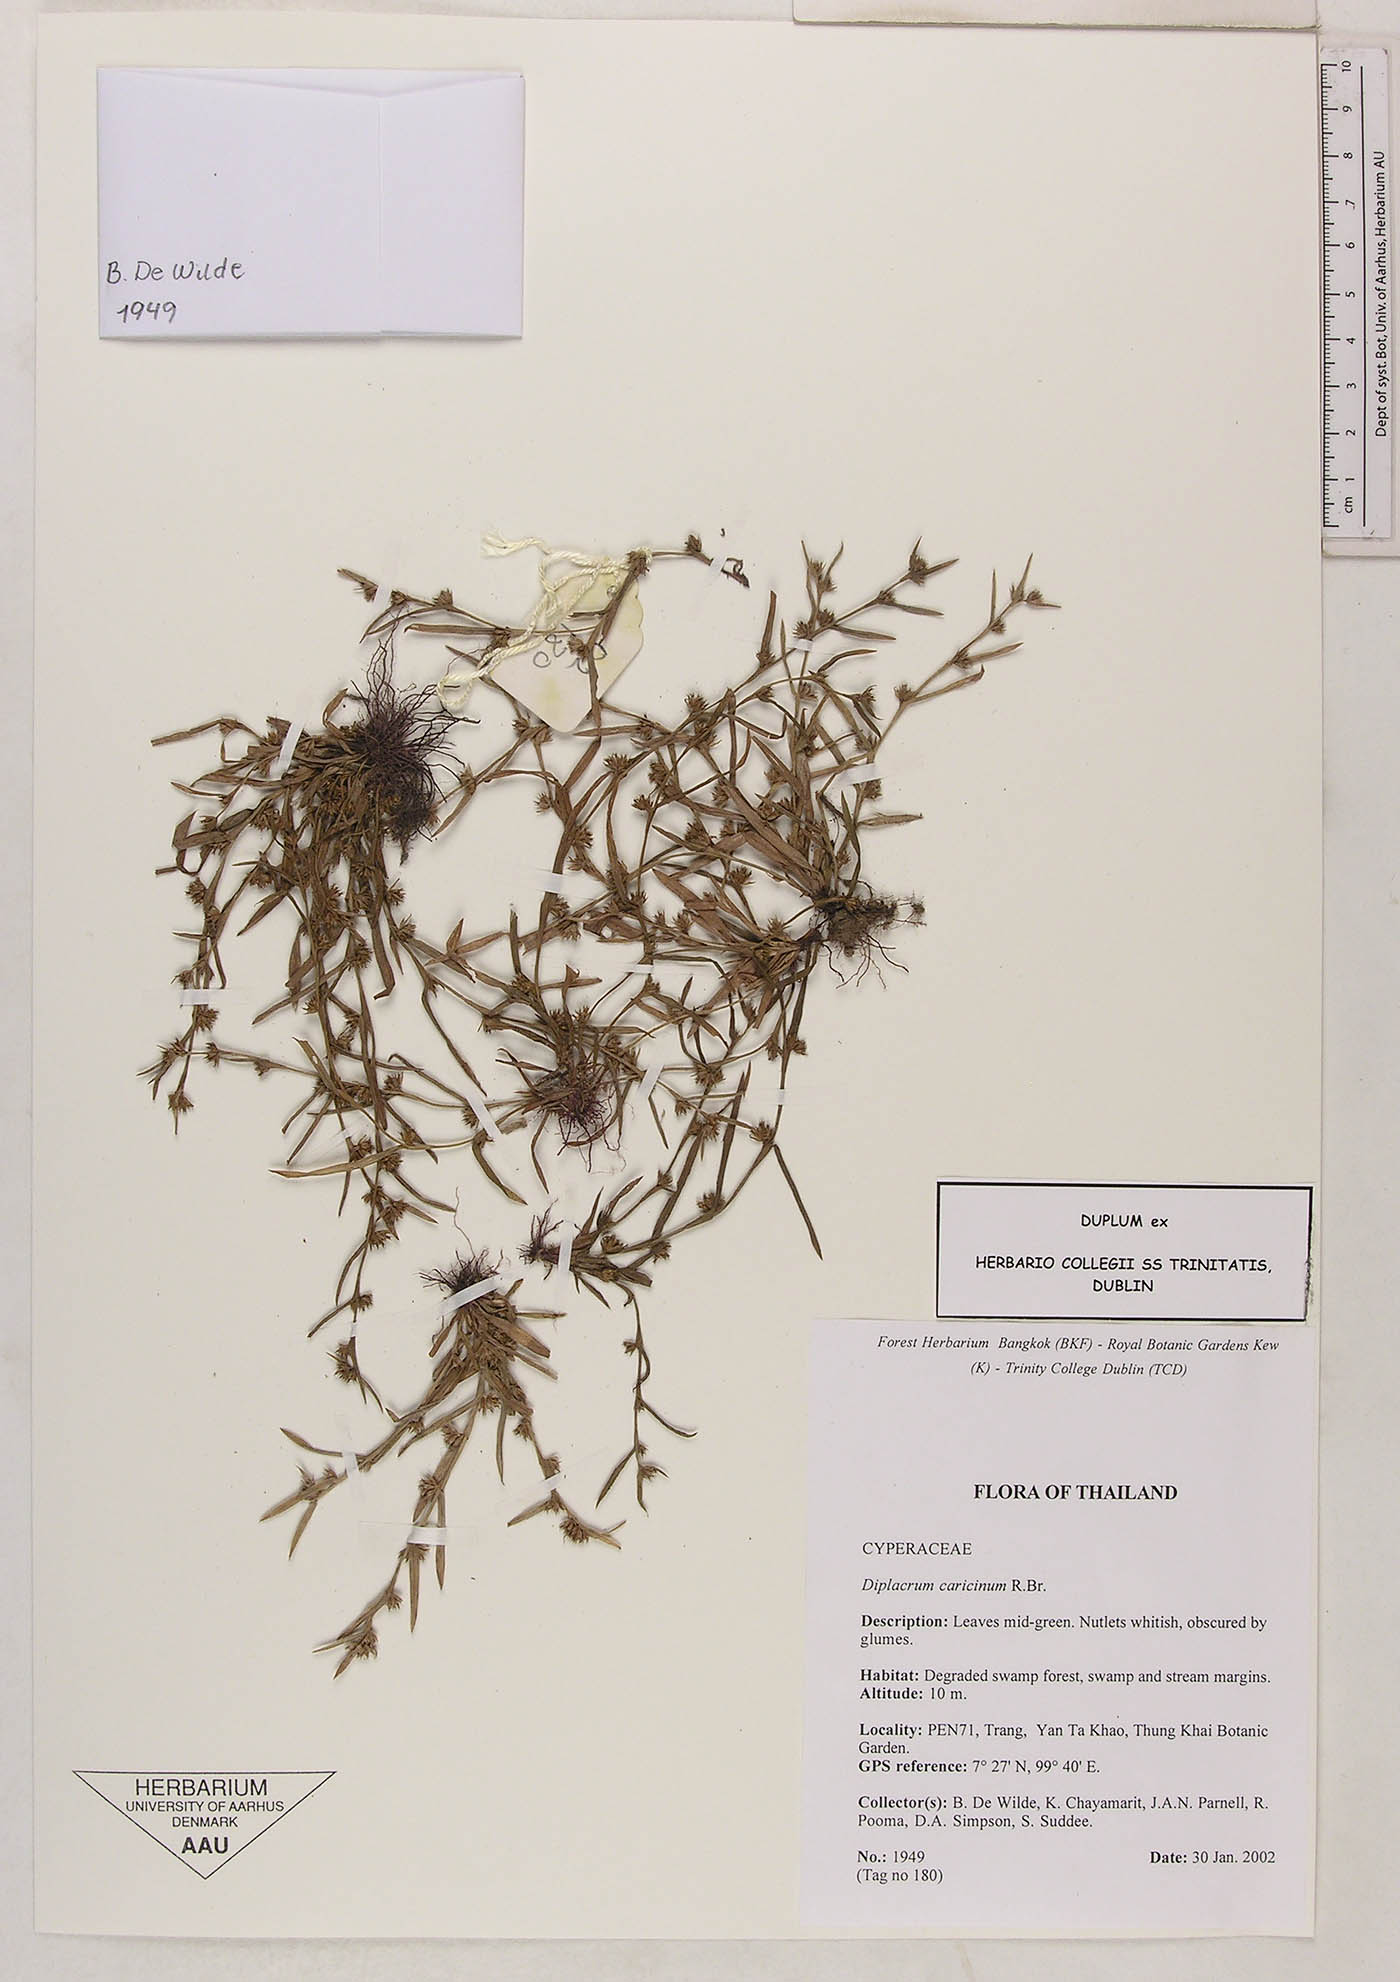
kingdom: Plantae
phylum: Tracheophyta
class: Liliopsida
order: Poales
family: Cyperaceae
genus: Diplacrum
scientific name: Diplacrum caricinum
